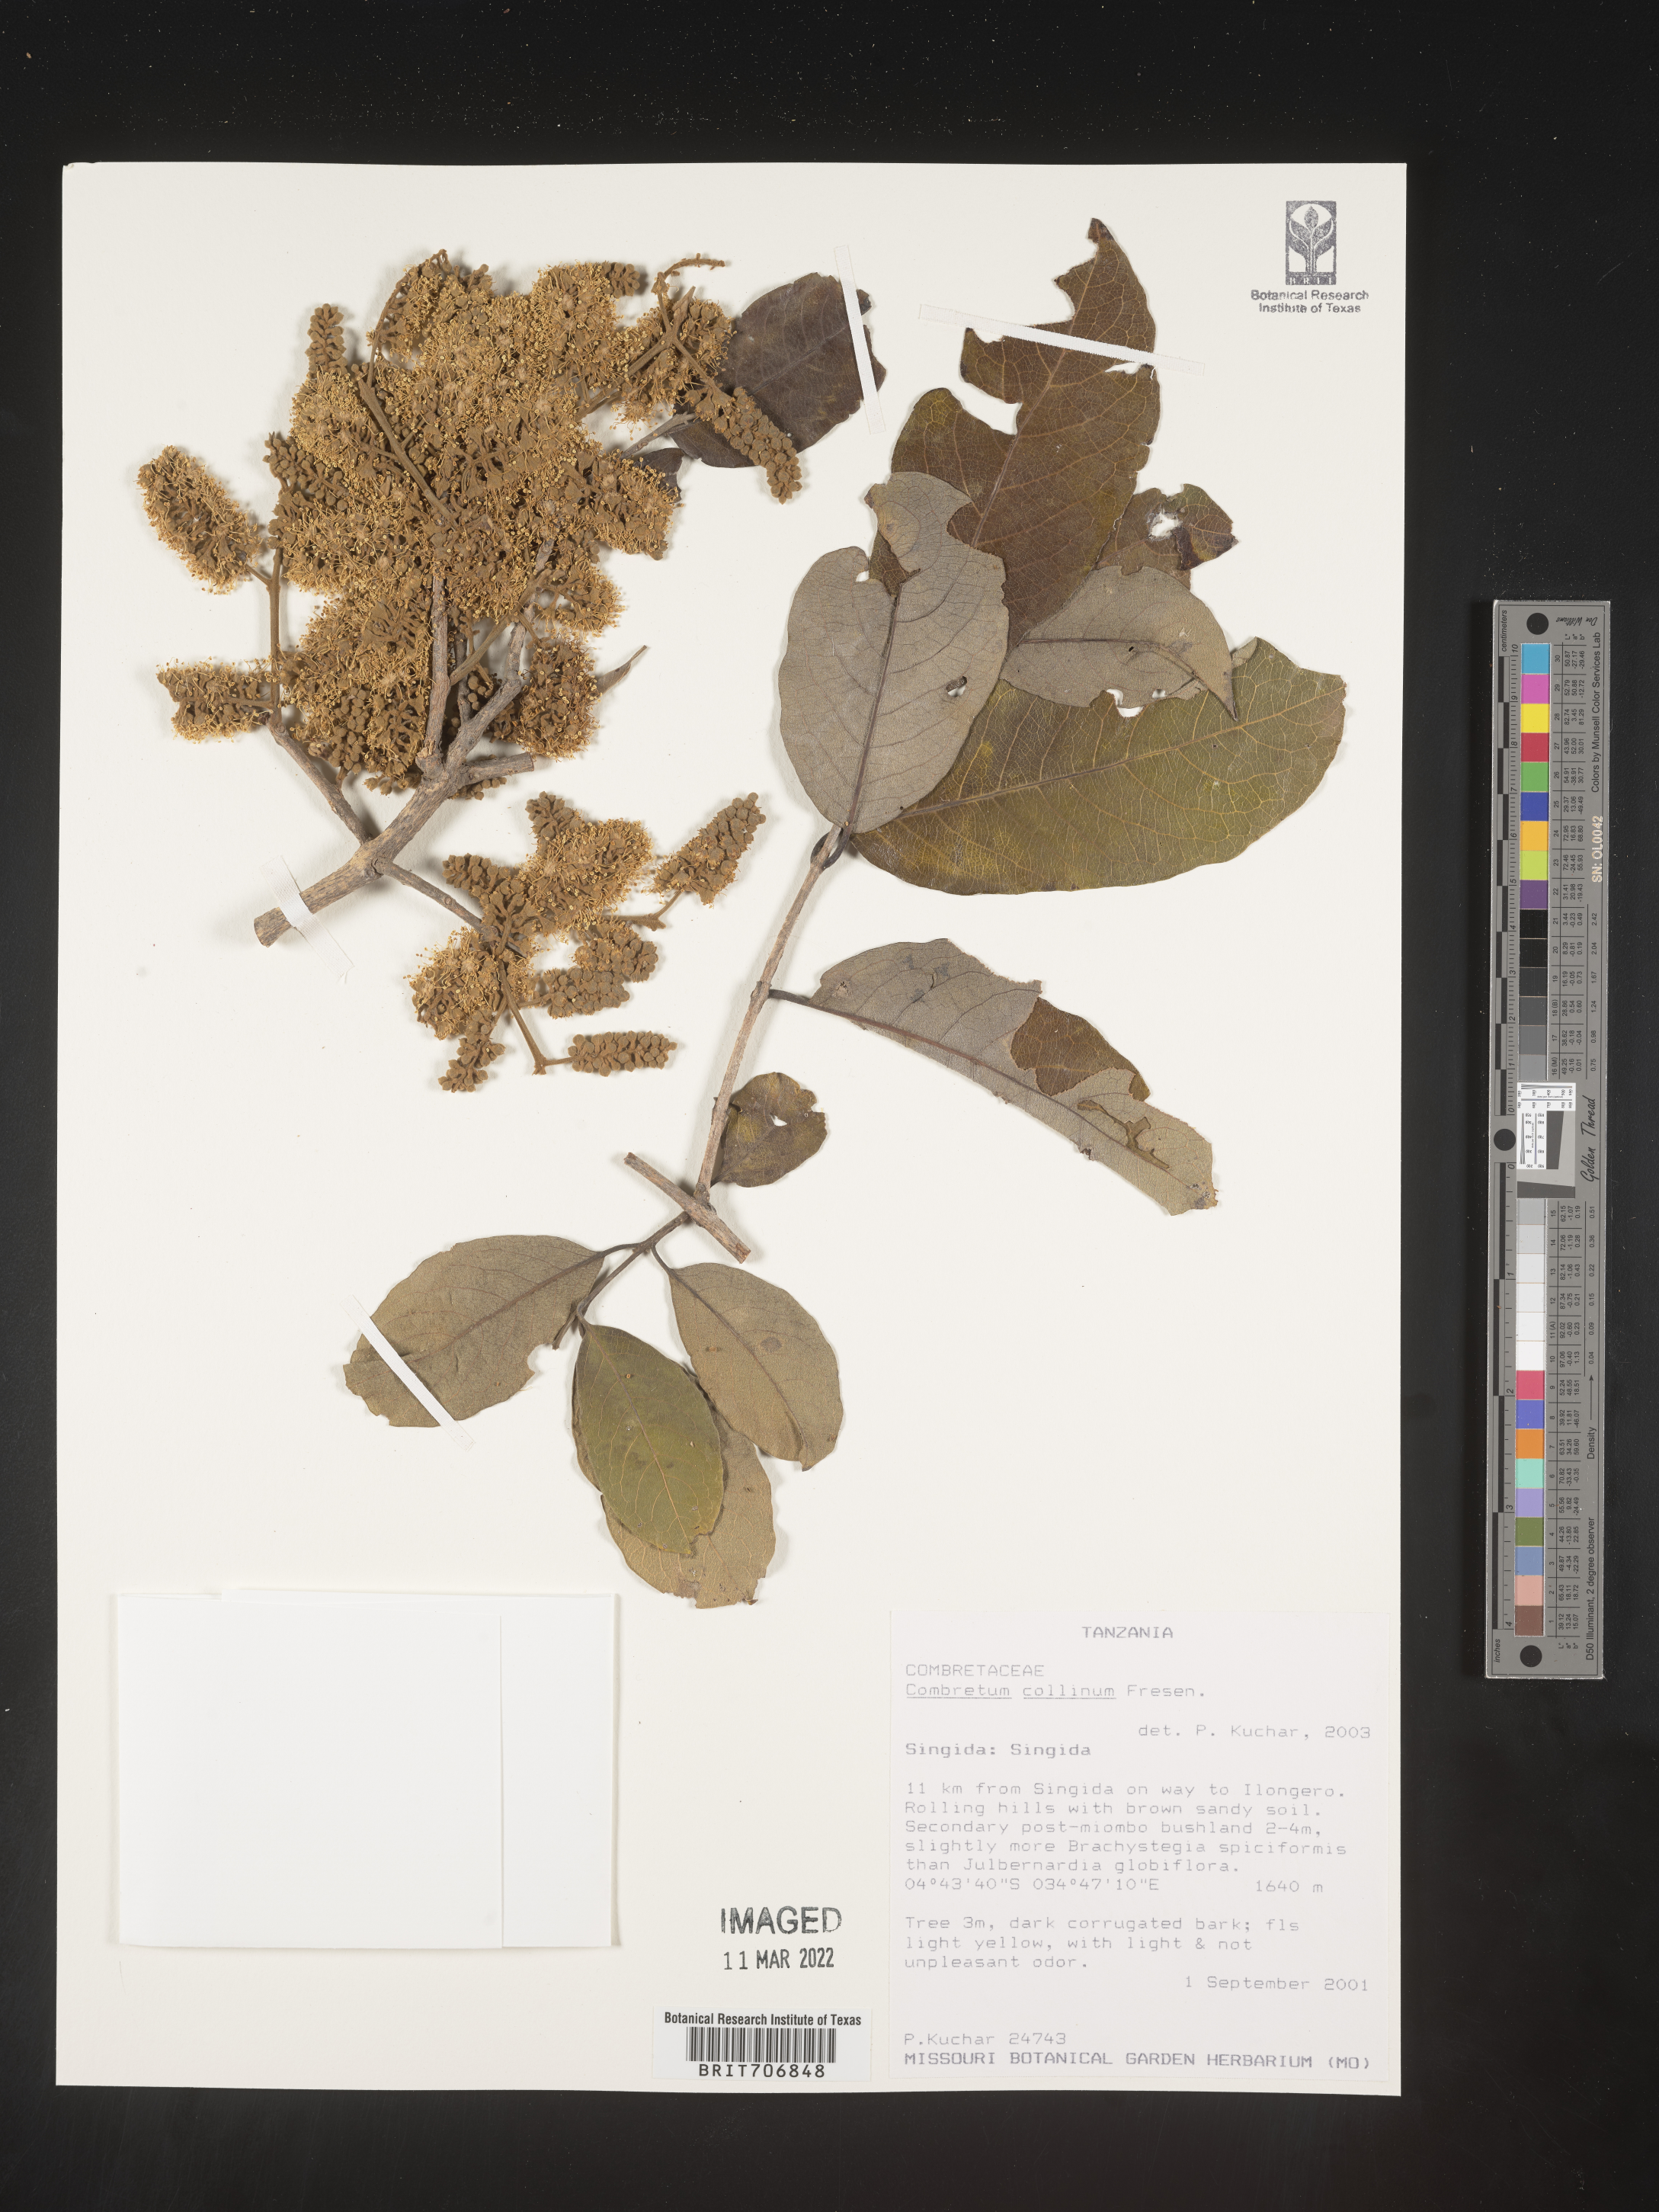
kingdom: Plantae
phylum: Tracheophyta
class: Magnoliopsida
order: Myrtales
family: Combretaceae
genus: Combretum
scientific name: Combretum
